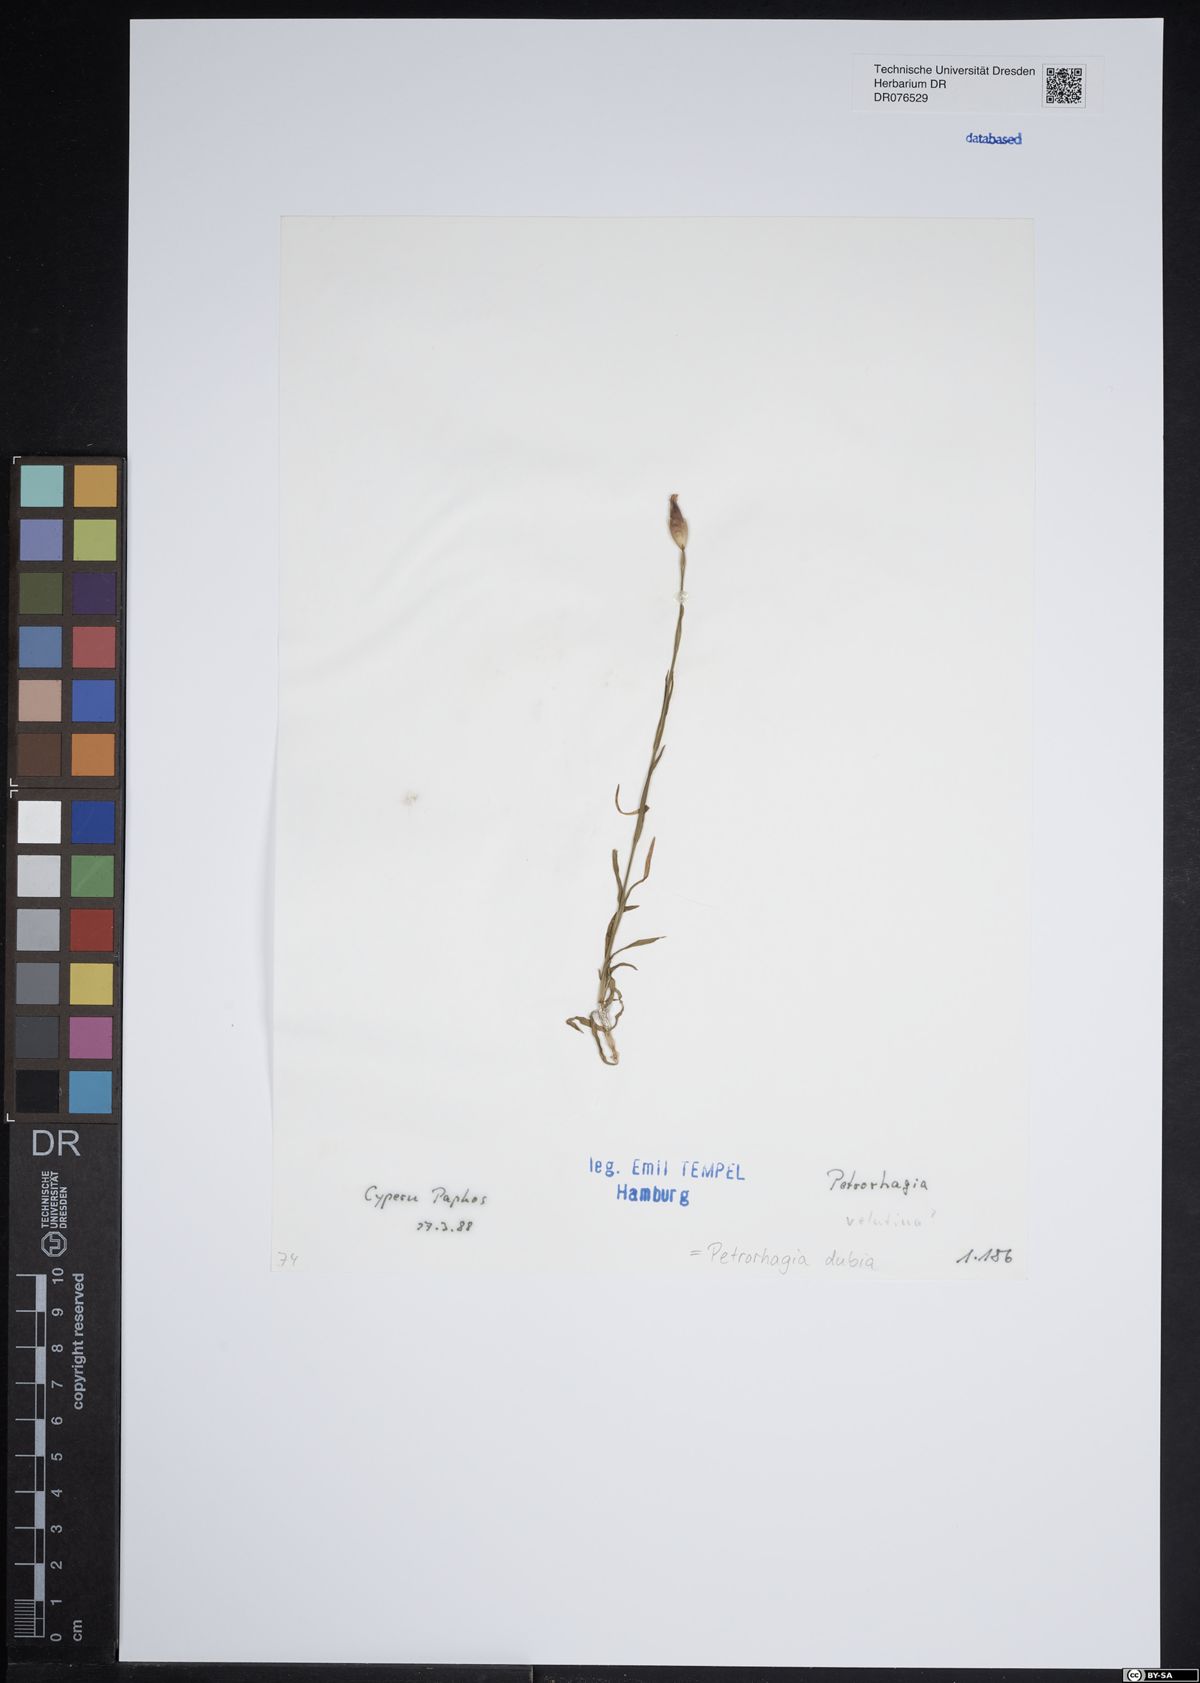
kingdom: Plantae
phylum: Tracheophyta
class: Magnoliopsida
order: Caryophyllales
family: Caryophyllaceae
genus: Petrorhagia
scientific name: Petrorhagia dubia
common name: Hairypink
